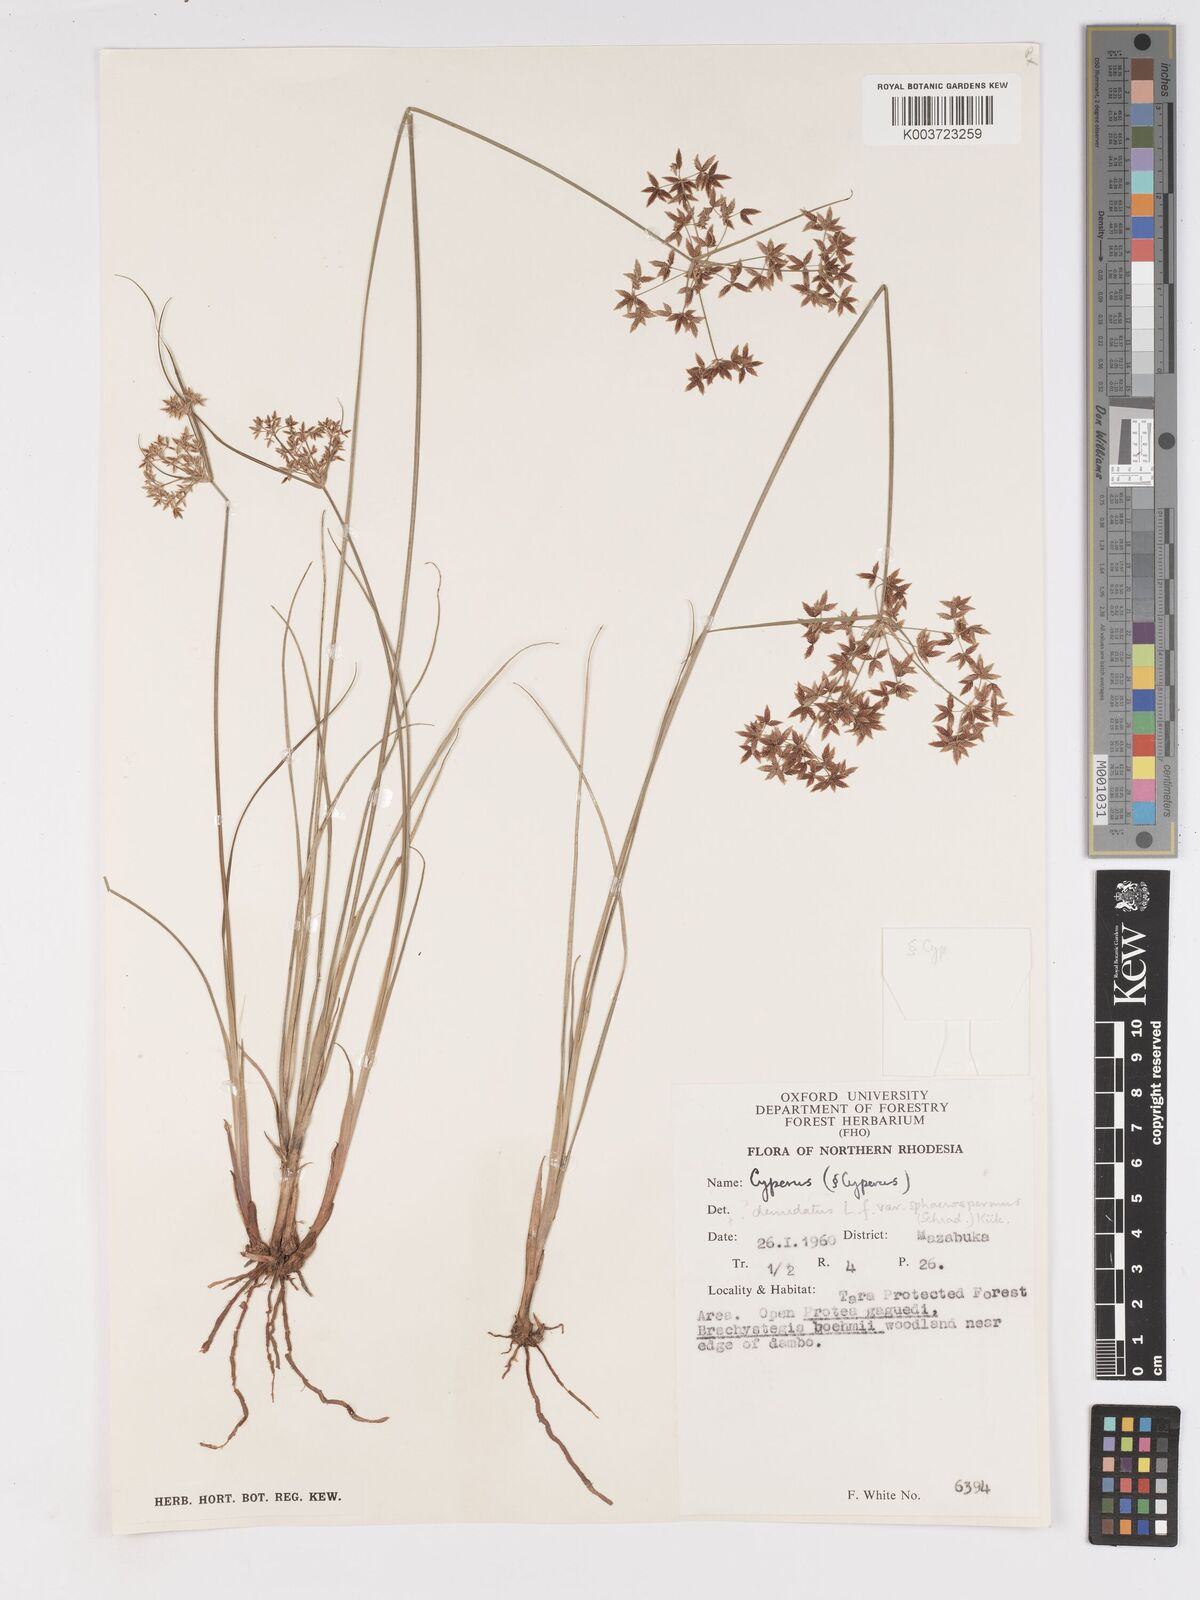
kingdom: Plantae
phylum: Tracheophyta
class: Liliopsida
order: Poales
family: Cyperaceae
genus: Cyperus
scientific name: Cyperus denudatus
